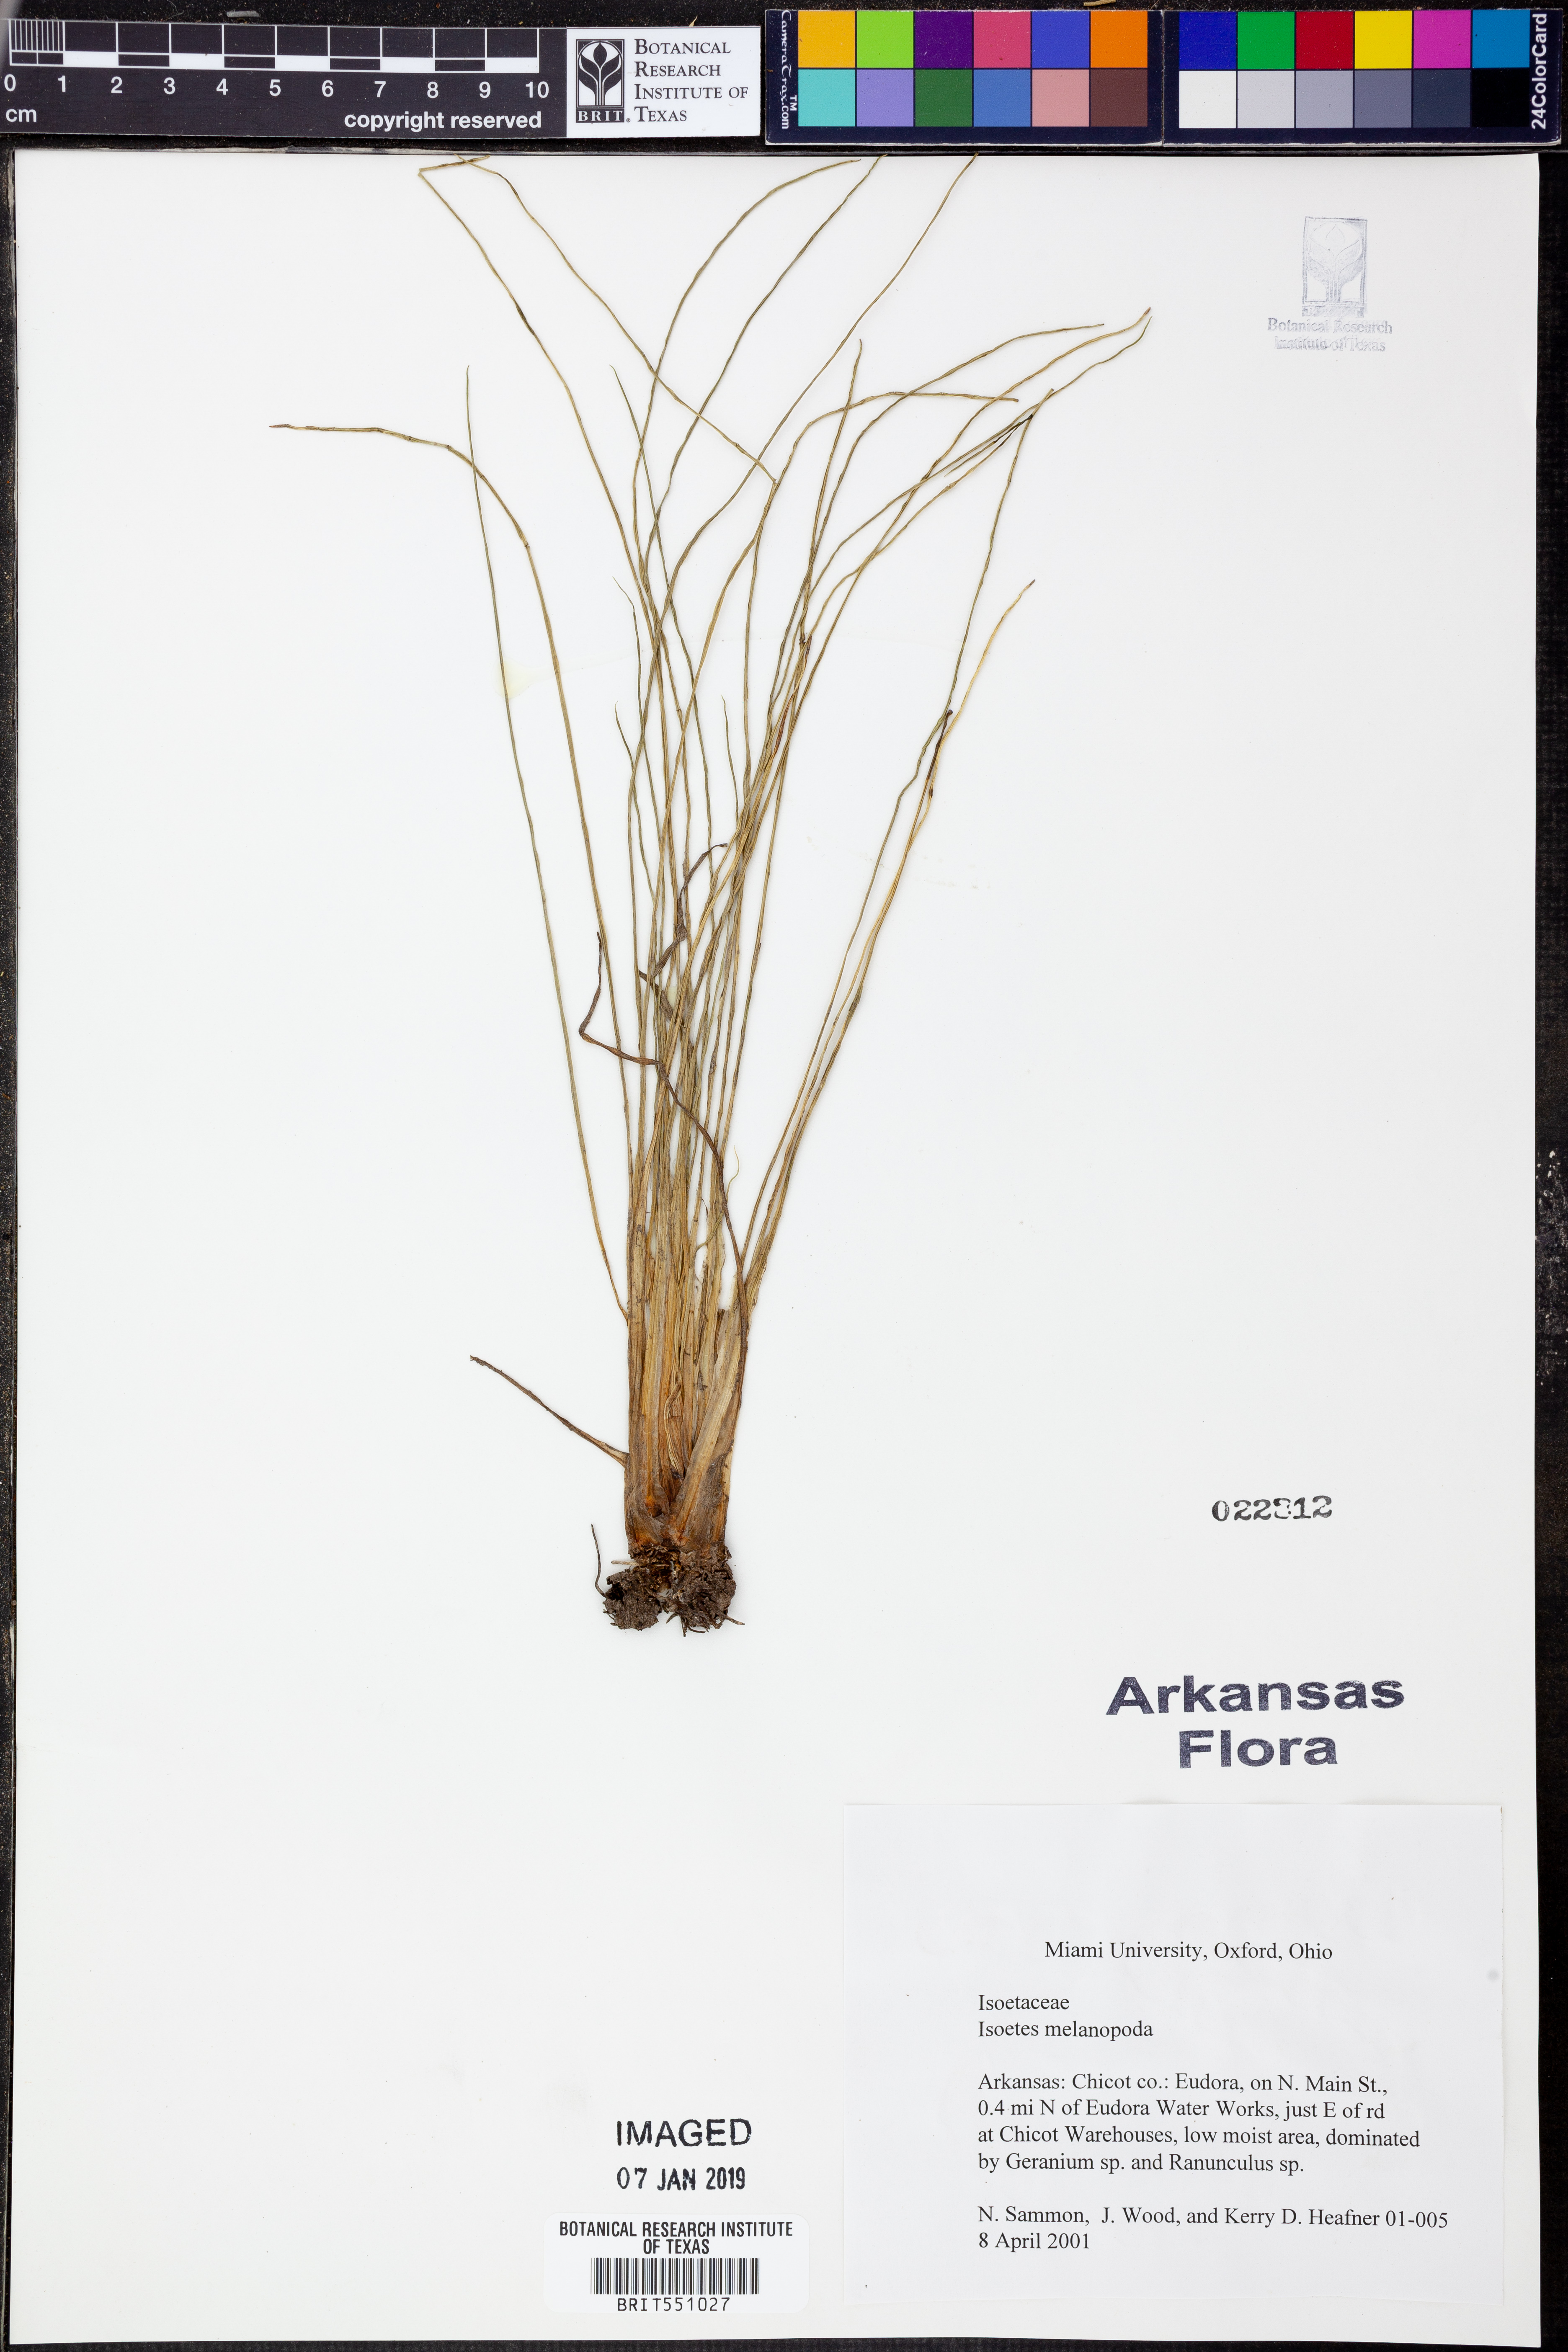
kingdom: Plantae
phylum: Tracheophyta
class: Lycopodiopsida
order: Isoetales
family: Isoetaceae
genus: Isoetes
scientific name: Isoetes melanopoda
